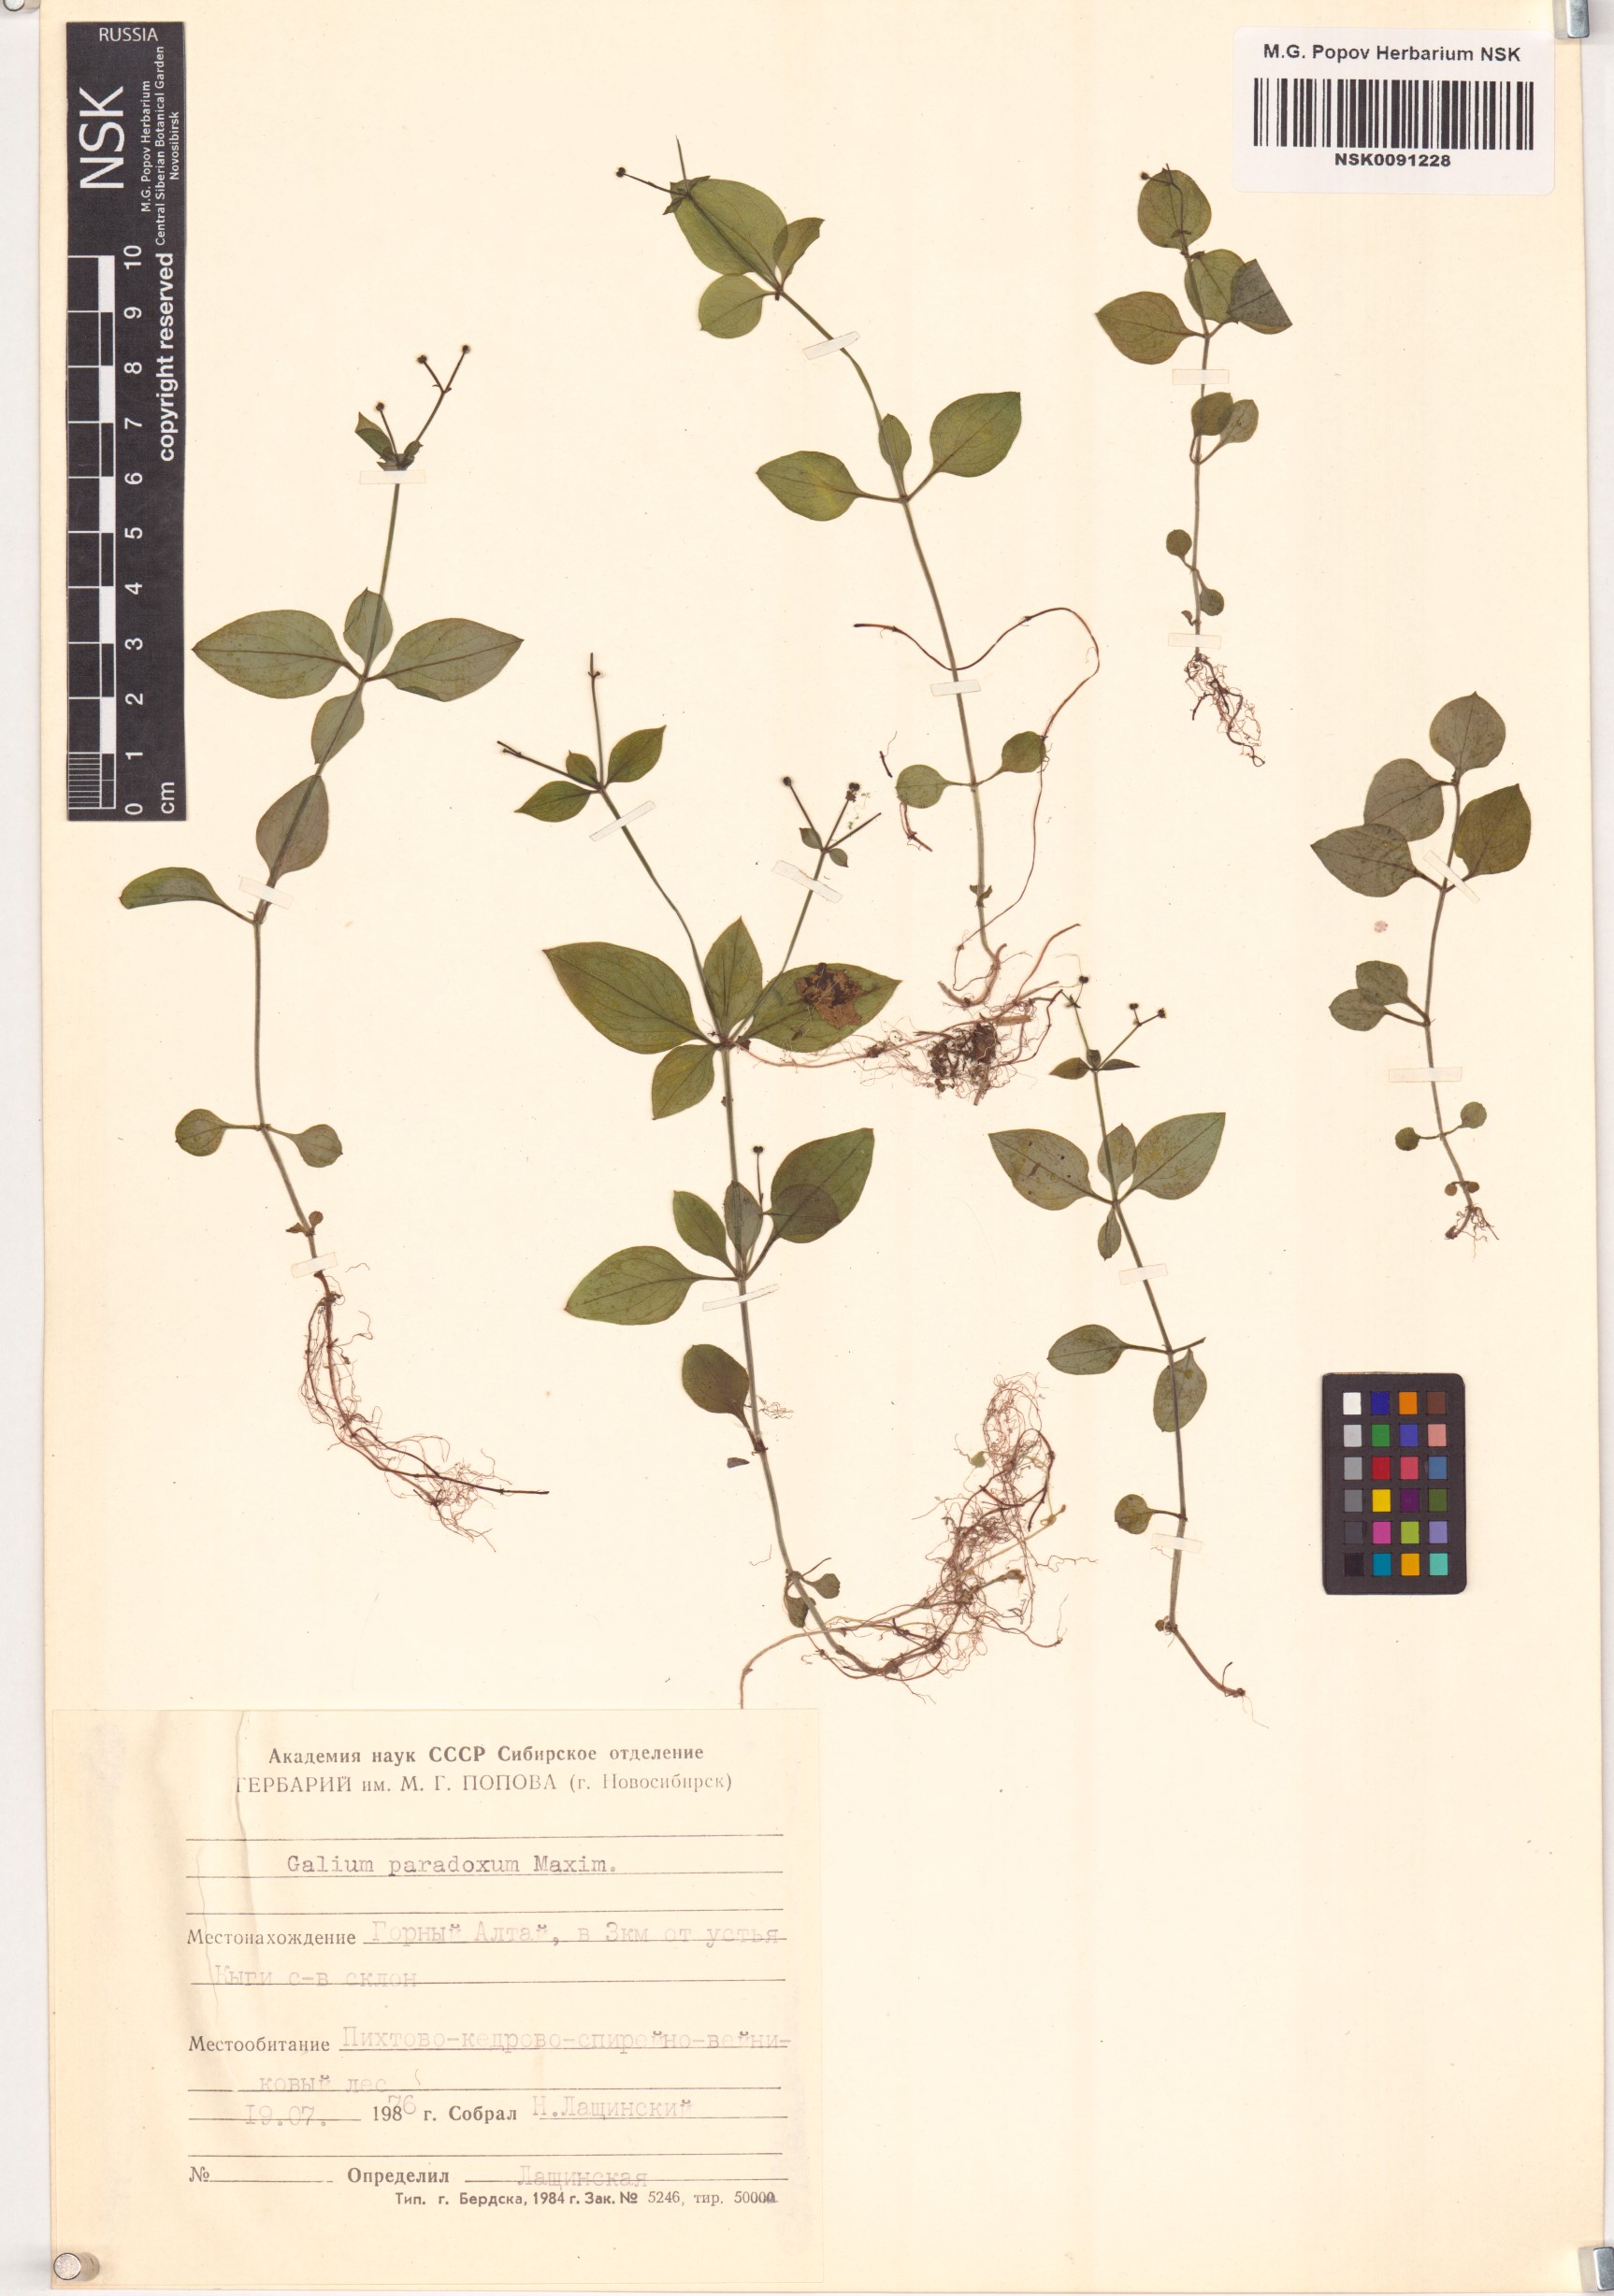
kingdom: Plantae
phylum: Tracheophyta
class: Magnoliopsida
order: Gentianales
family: Rubiaceae
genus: Pseudogalium
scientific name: Pseudogalium paradoxum
